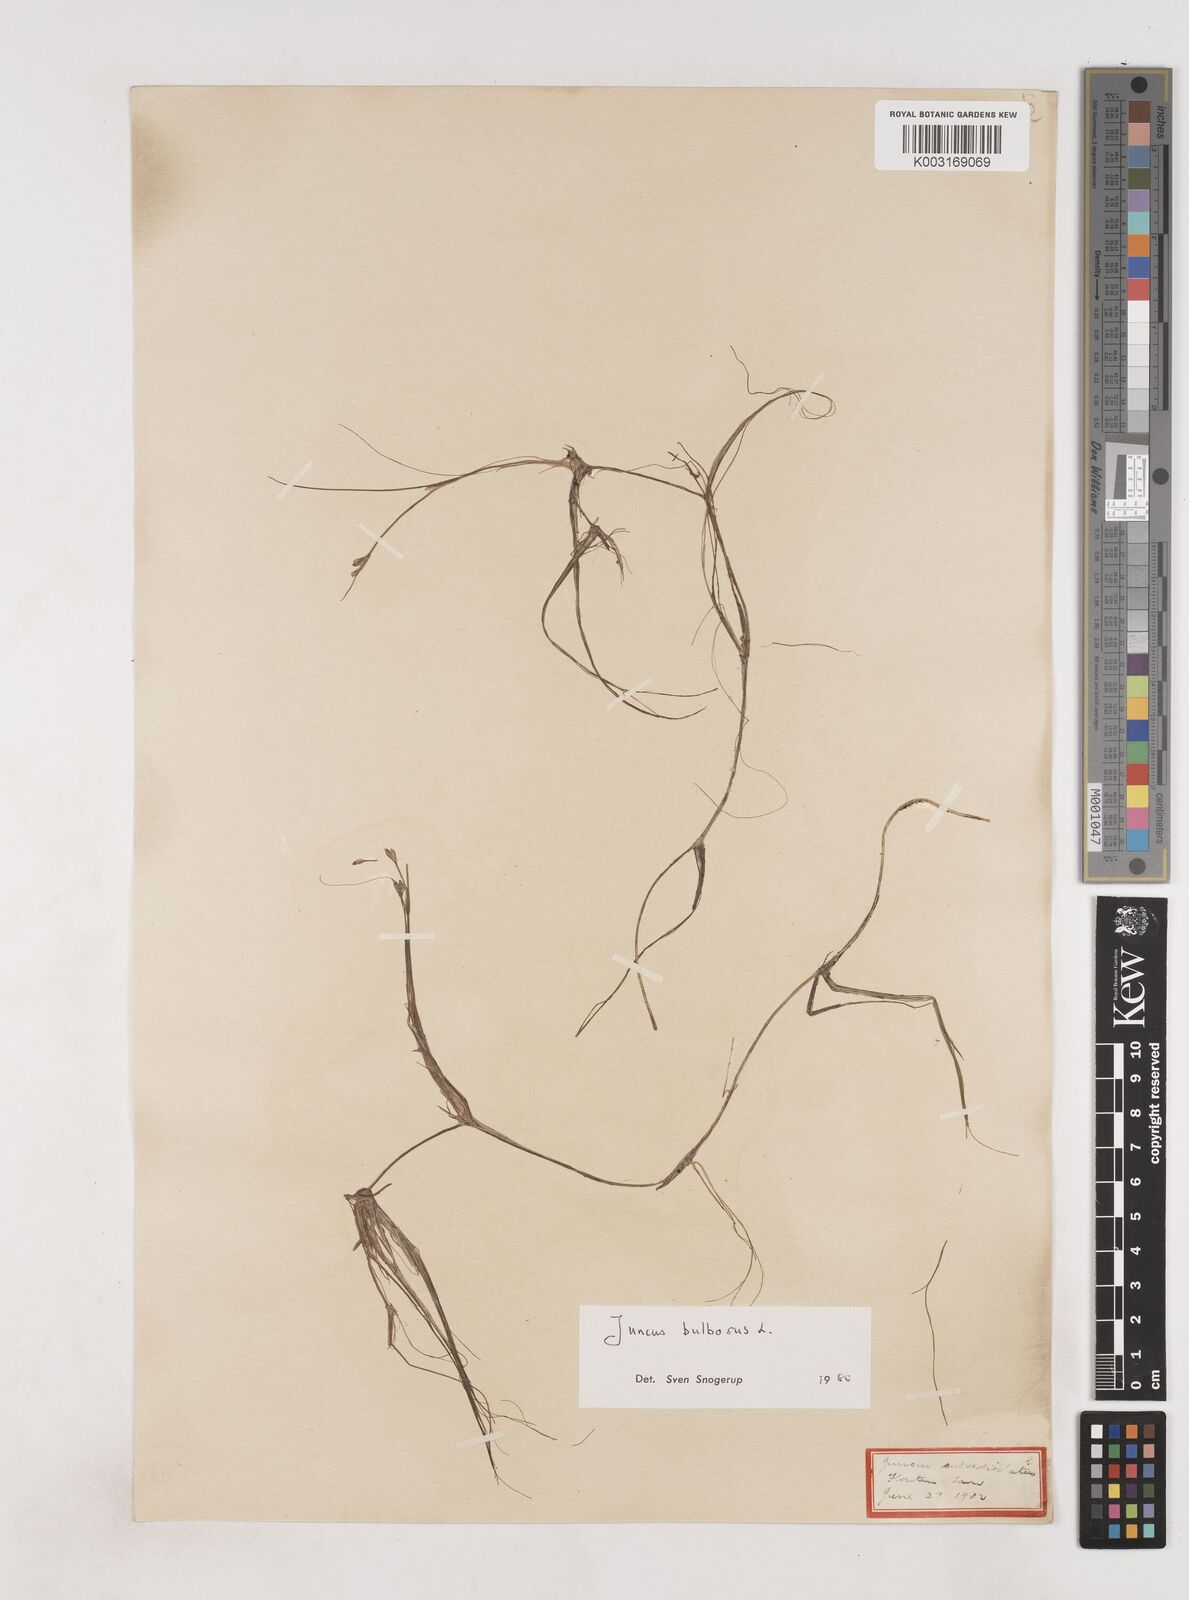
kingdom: Plantae
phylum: Tracheophyta
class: Liliopsida
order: Poales
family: Juncaceae
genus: Juncus
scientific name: Juncus bulbosus
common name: Bulbous rush
